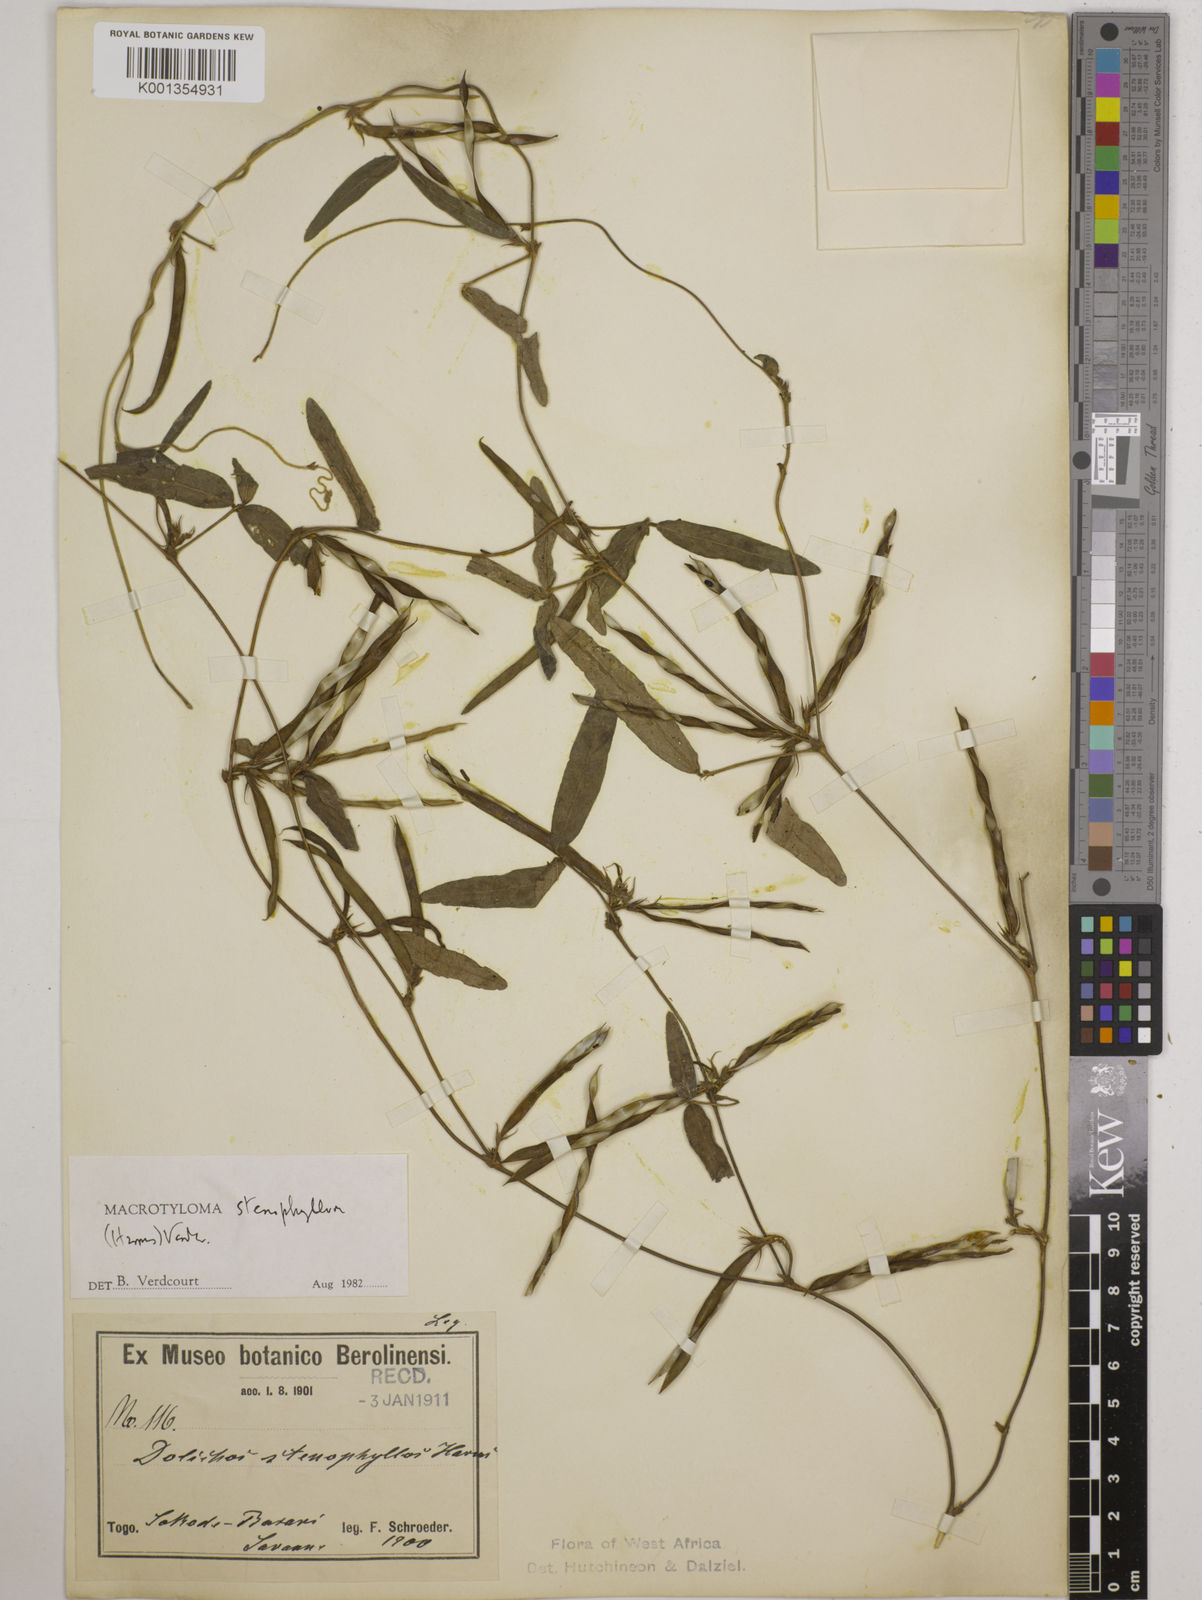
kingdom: Plantae
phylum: Tracheophyta
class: Magnoliopsida
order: Fabales
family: Fabaceae
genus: Macrotyloma
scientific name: Macrotyloma stenophyllum
